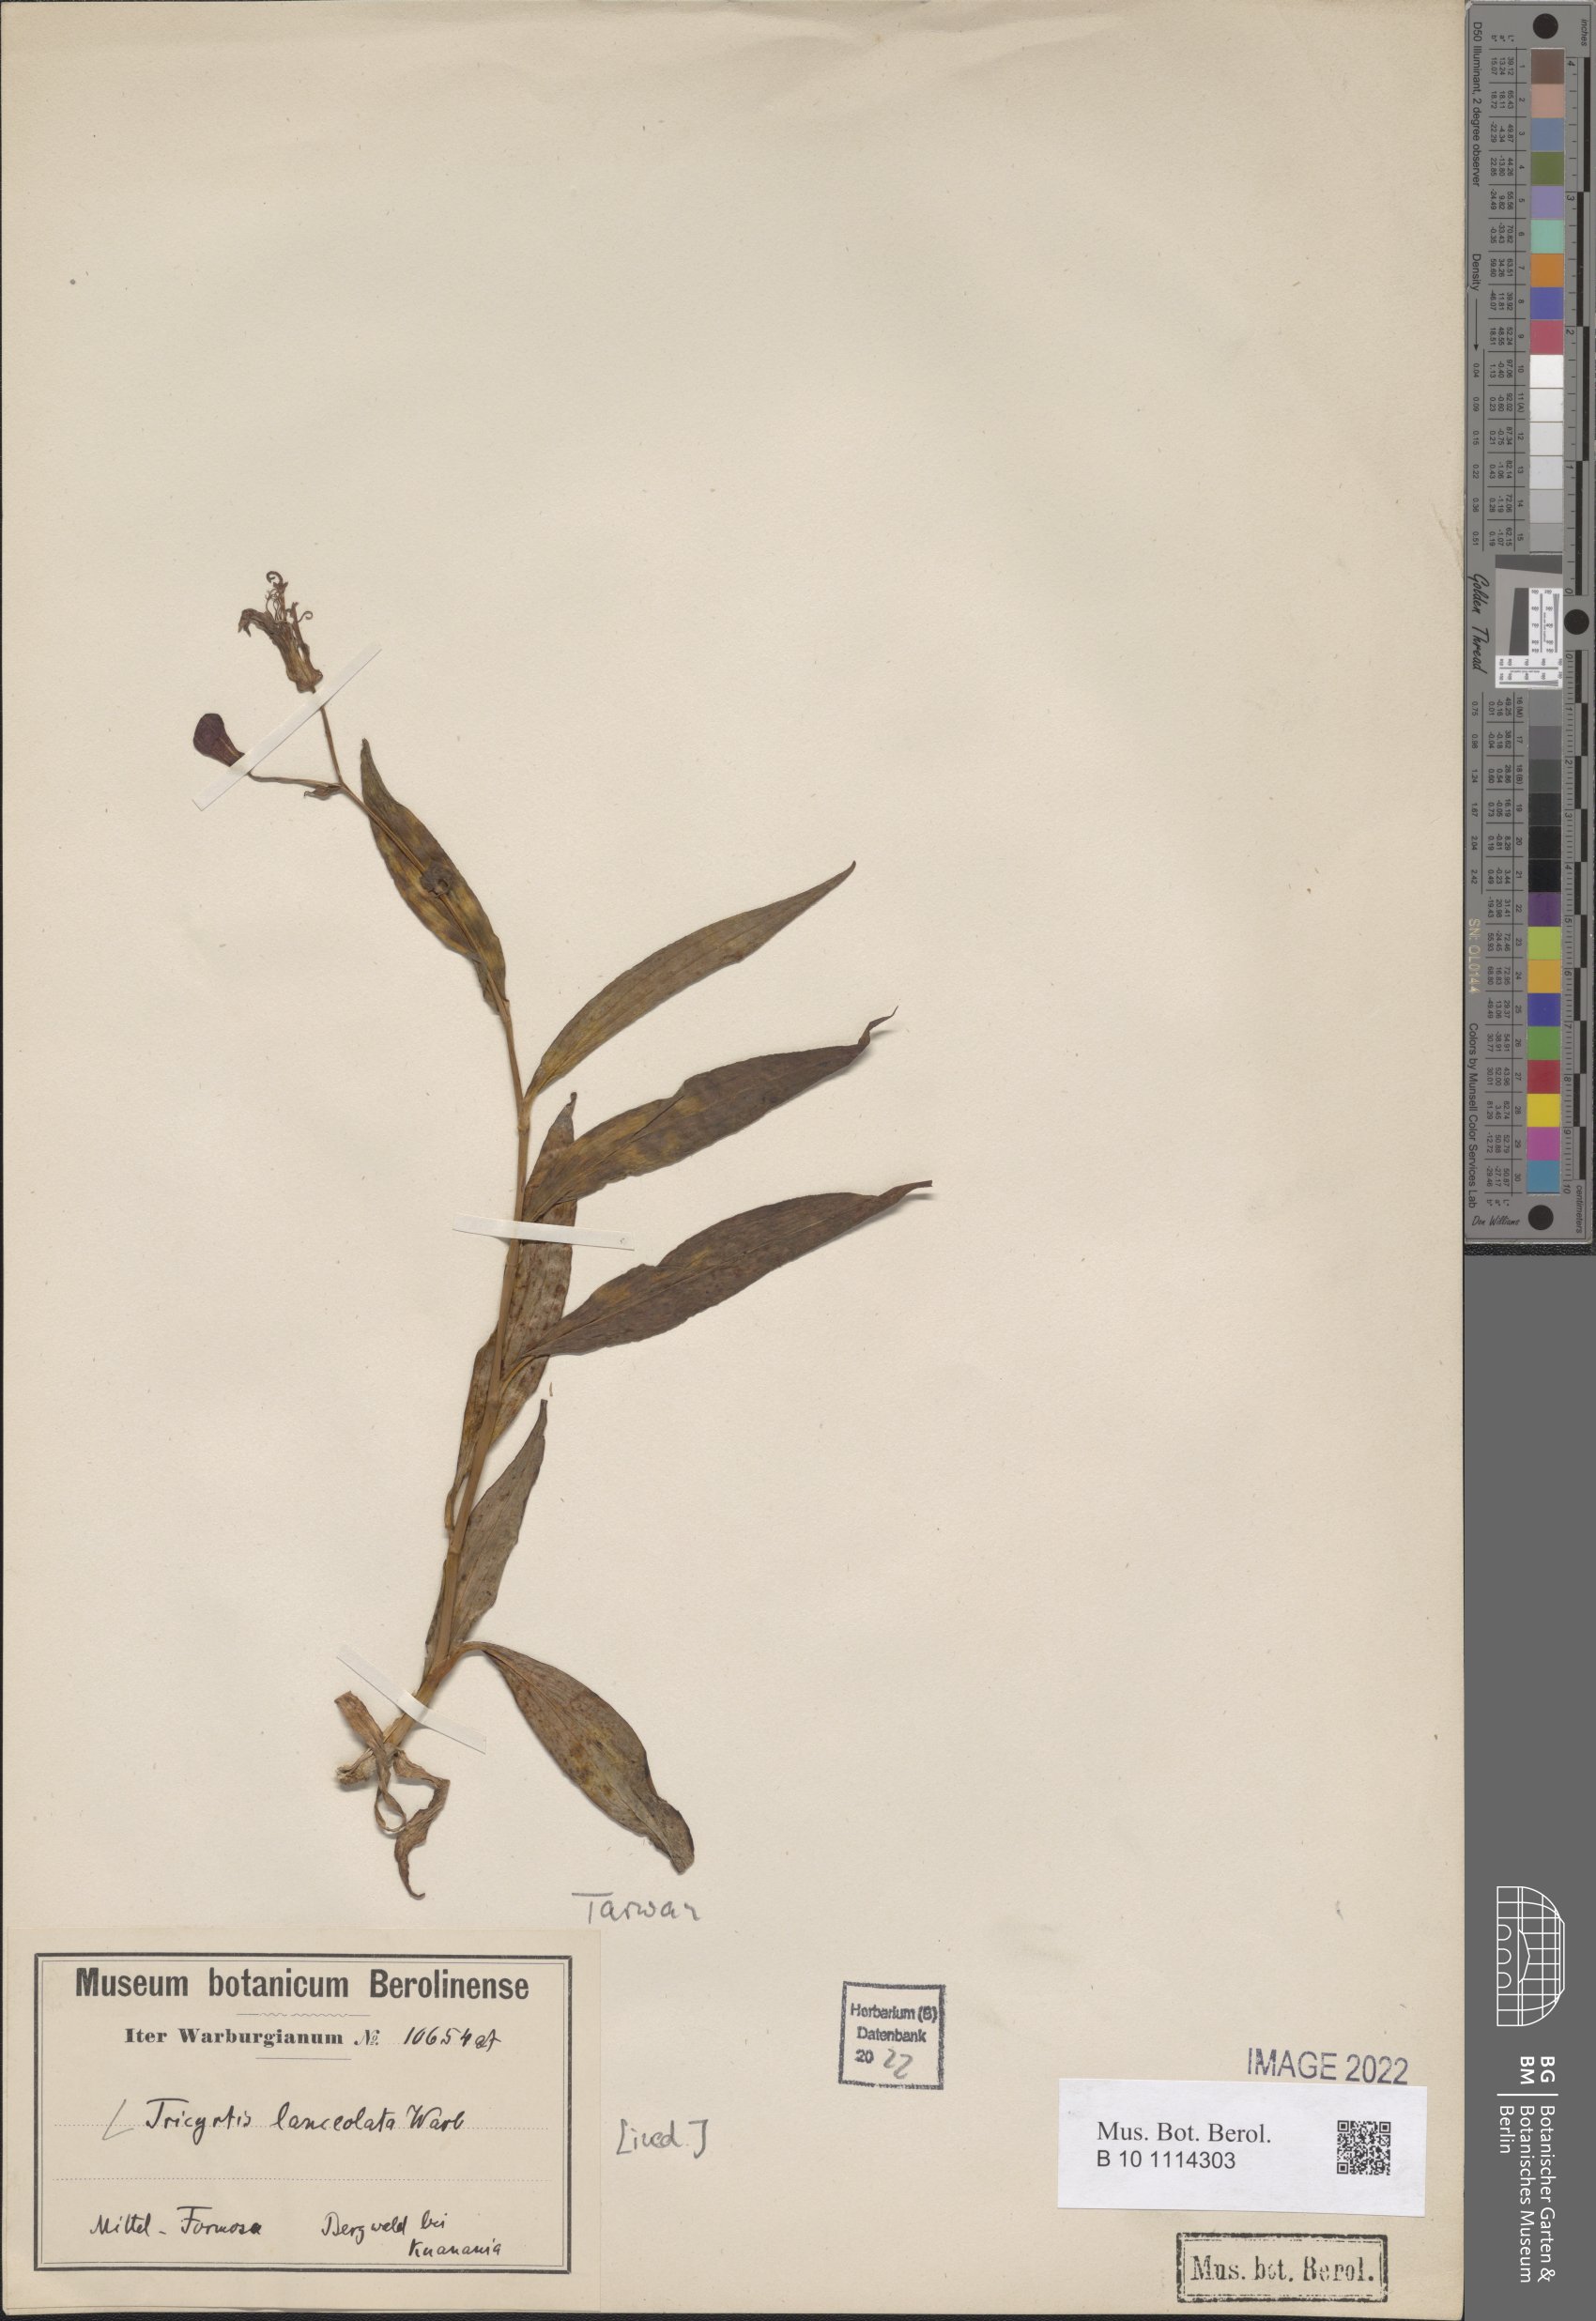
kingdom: Plantae
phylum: Tracheophyta
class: Liliopsida
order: Asparagales
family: Convallariaceae
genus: Tricyrtis
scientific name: Tricyrtis
